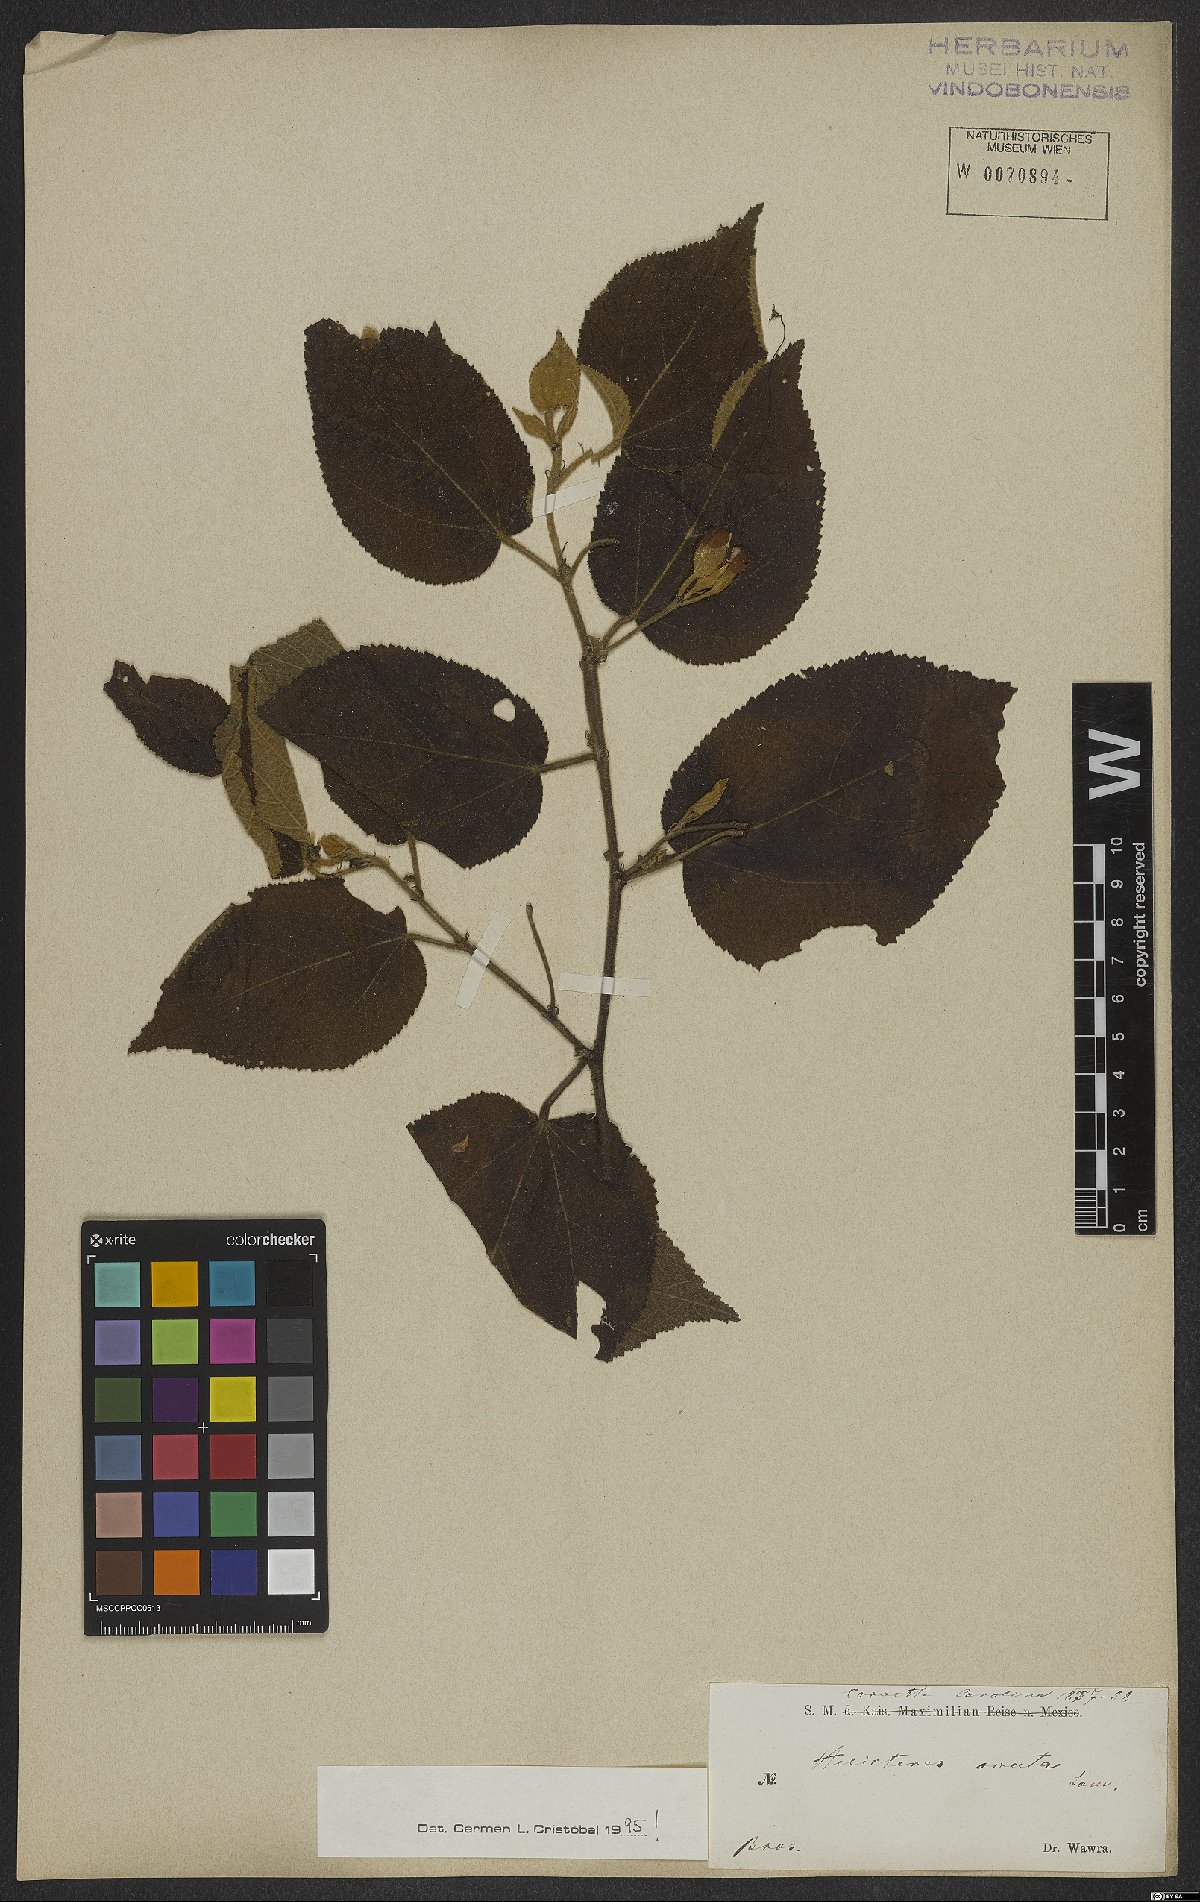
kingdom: Plantae
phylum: Tracheophyta
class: Magnoliopsida
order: Malvales
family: Malvaceae
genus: Helicteres
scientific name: Helicteres ovata
